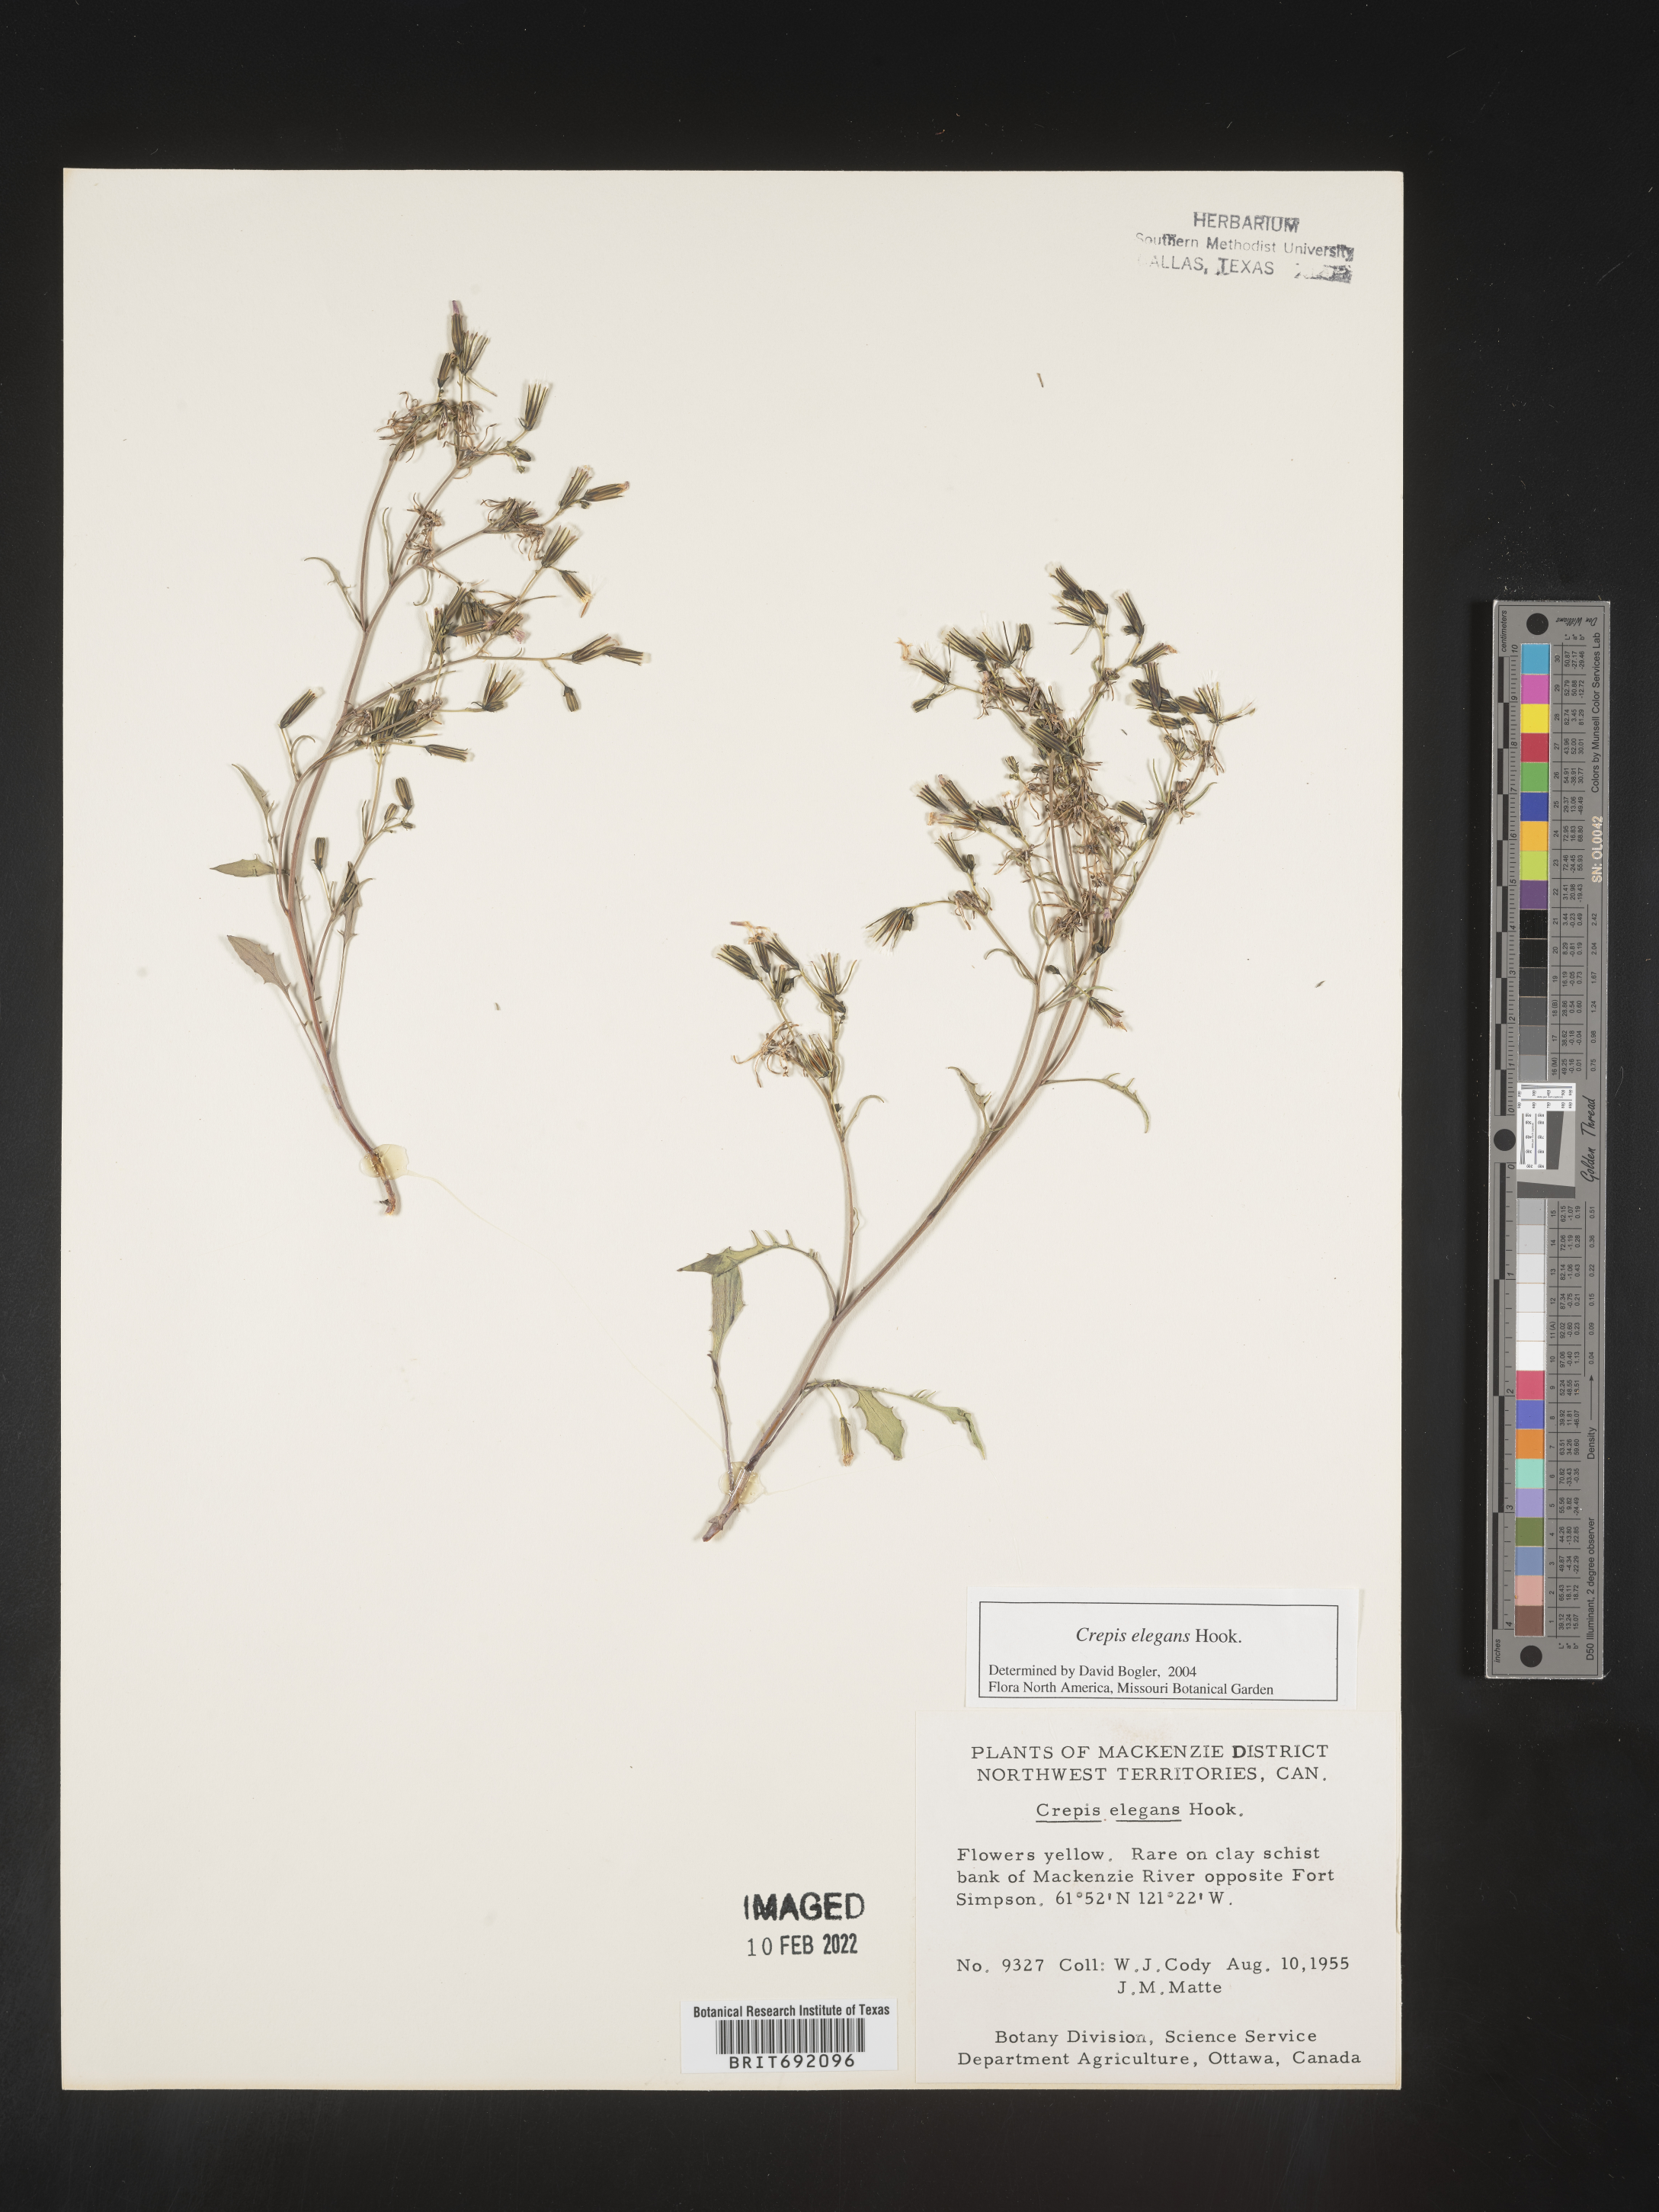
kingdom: Plantae
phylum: Tracheophyta
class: Magnoliopsida
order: Asterales
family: Asteraceae
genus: Crepis
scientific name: Crepis
